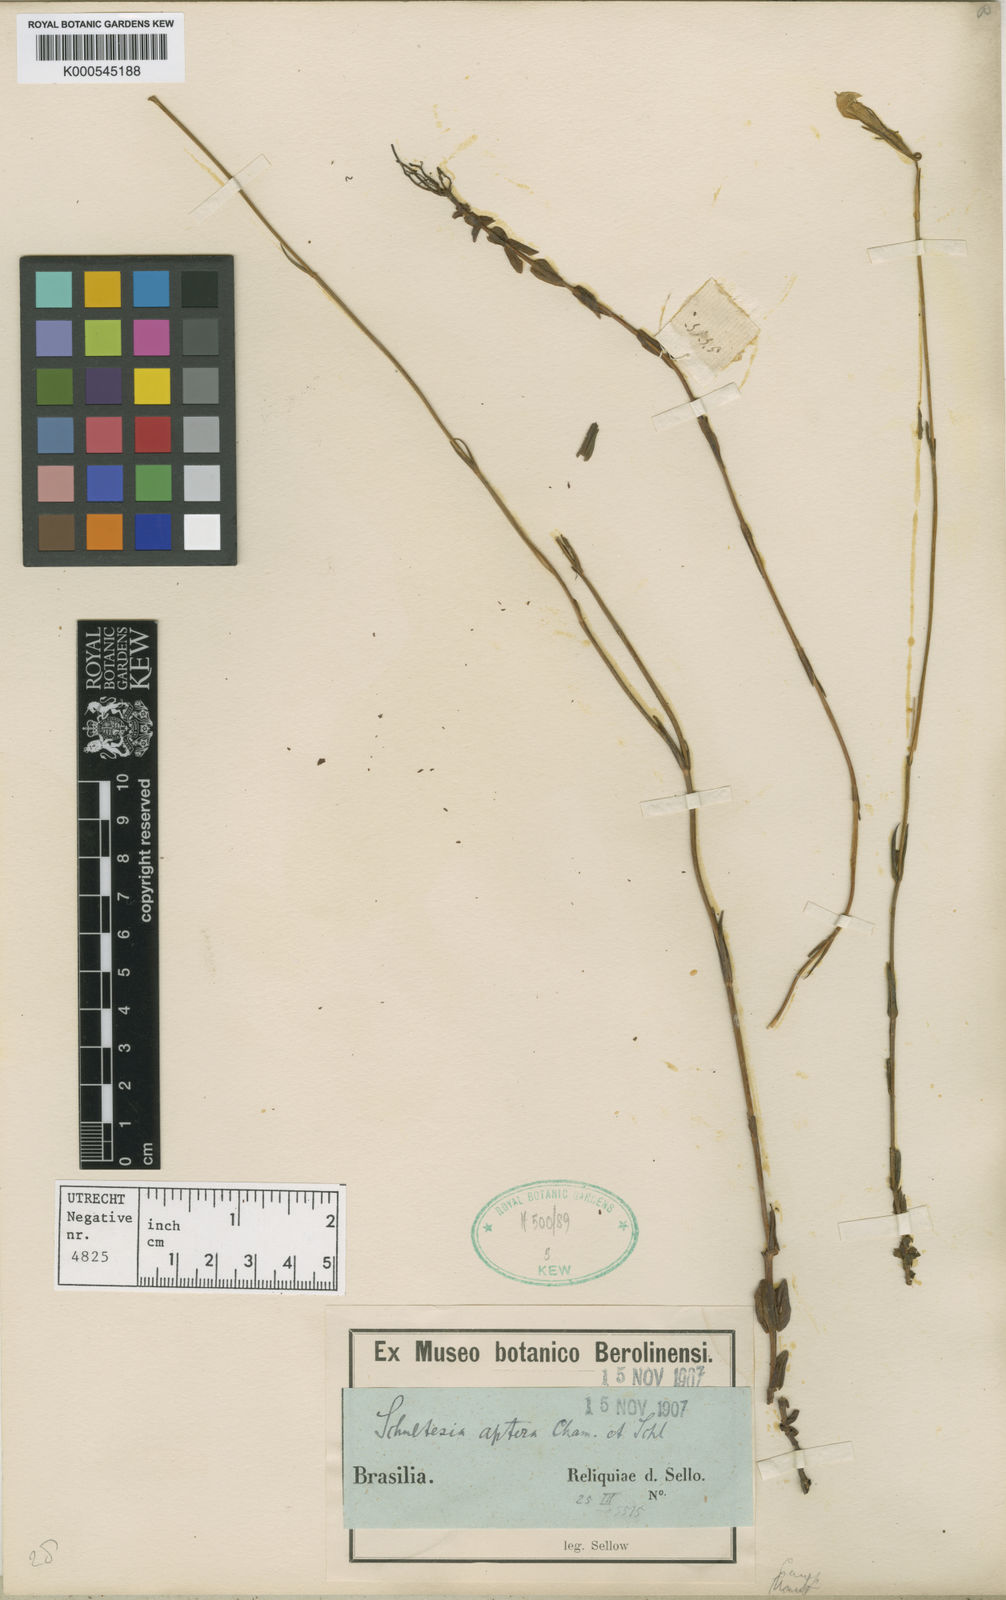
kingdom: Plantae
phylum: Tracheophyta
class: Magnoliopsida
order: Gentianales
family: Gentianaceae
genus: Schultesia
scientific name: Schultesia aptera
